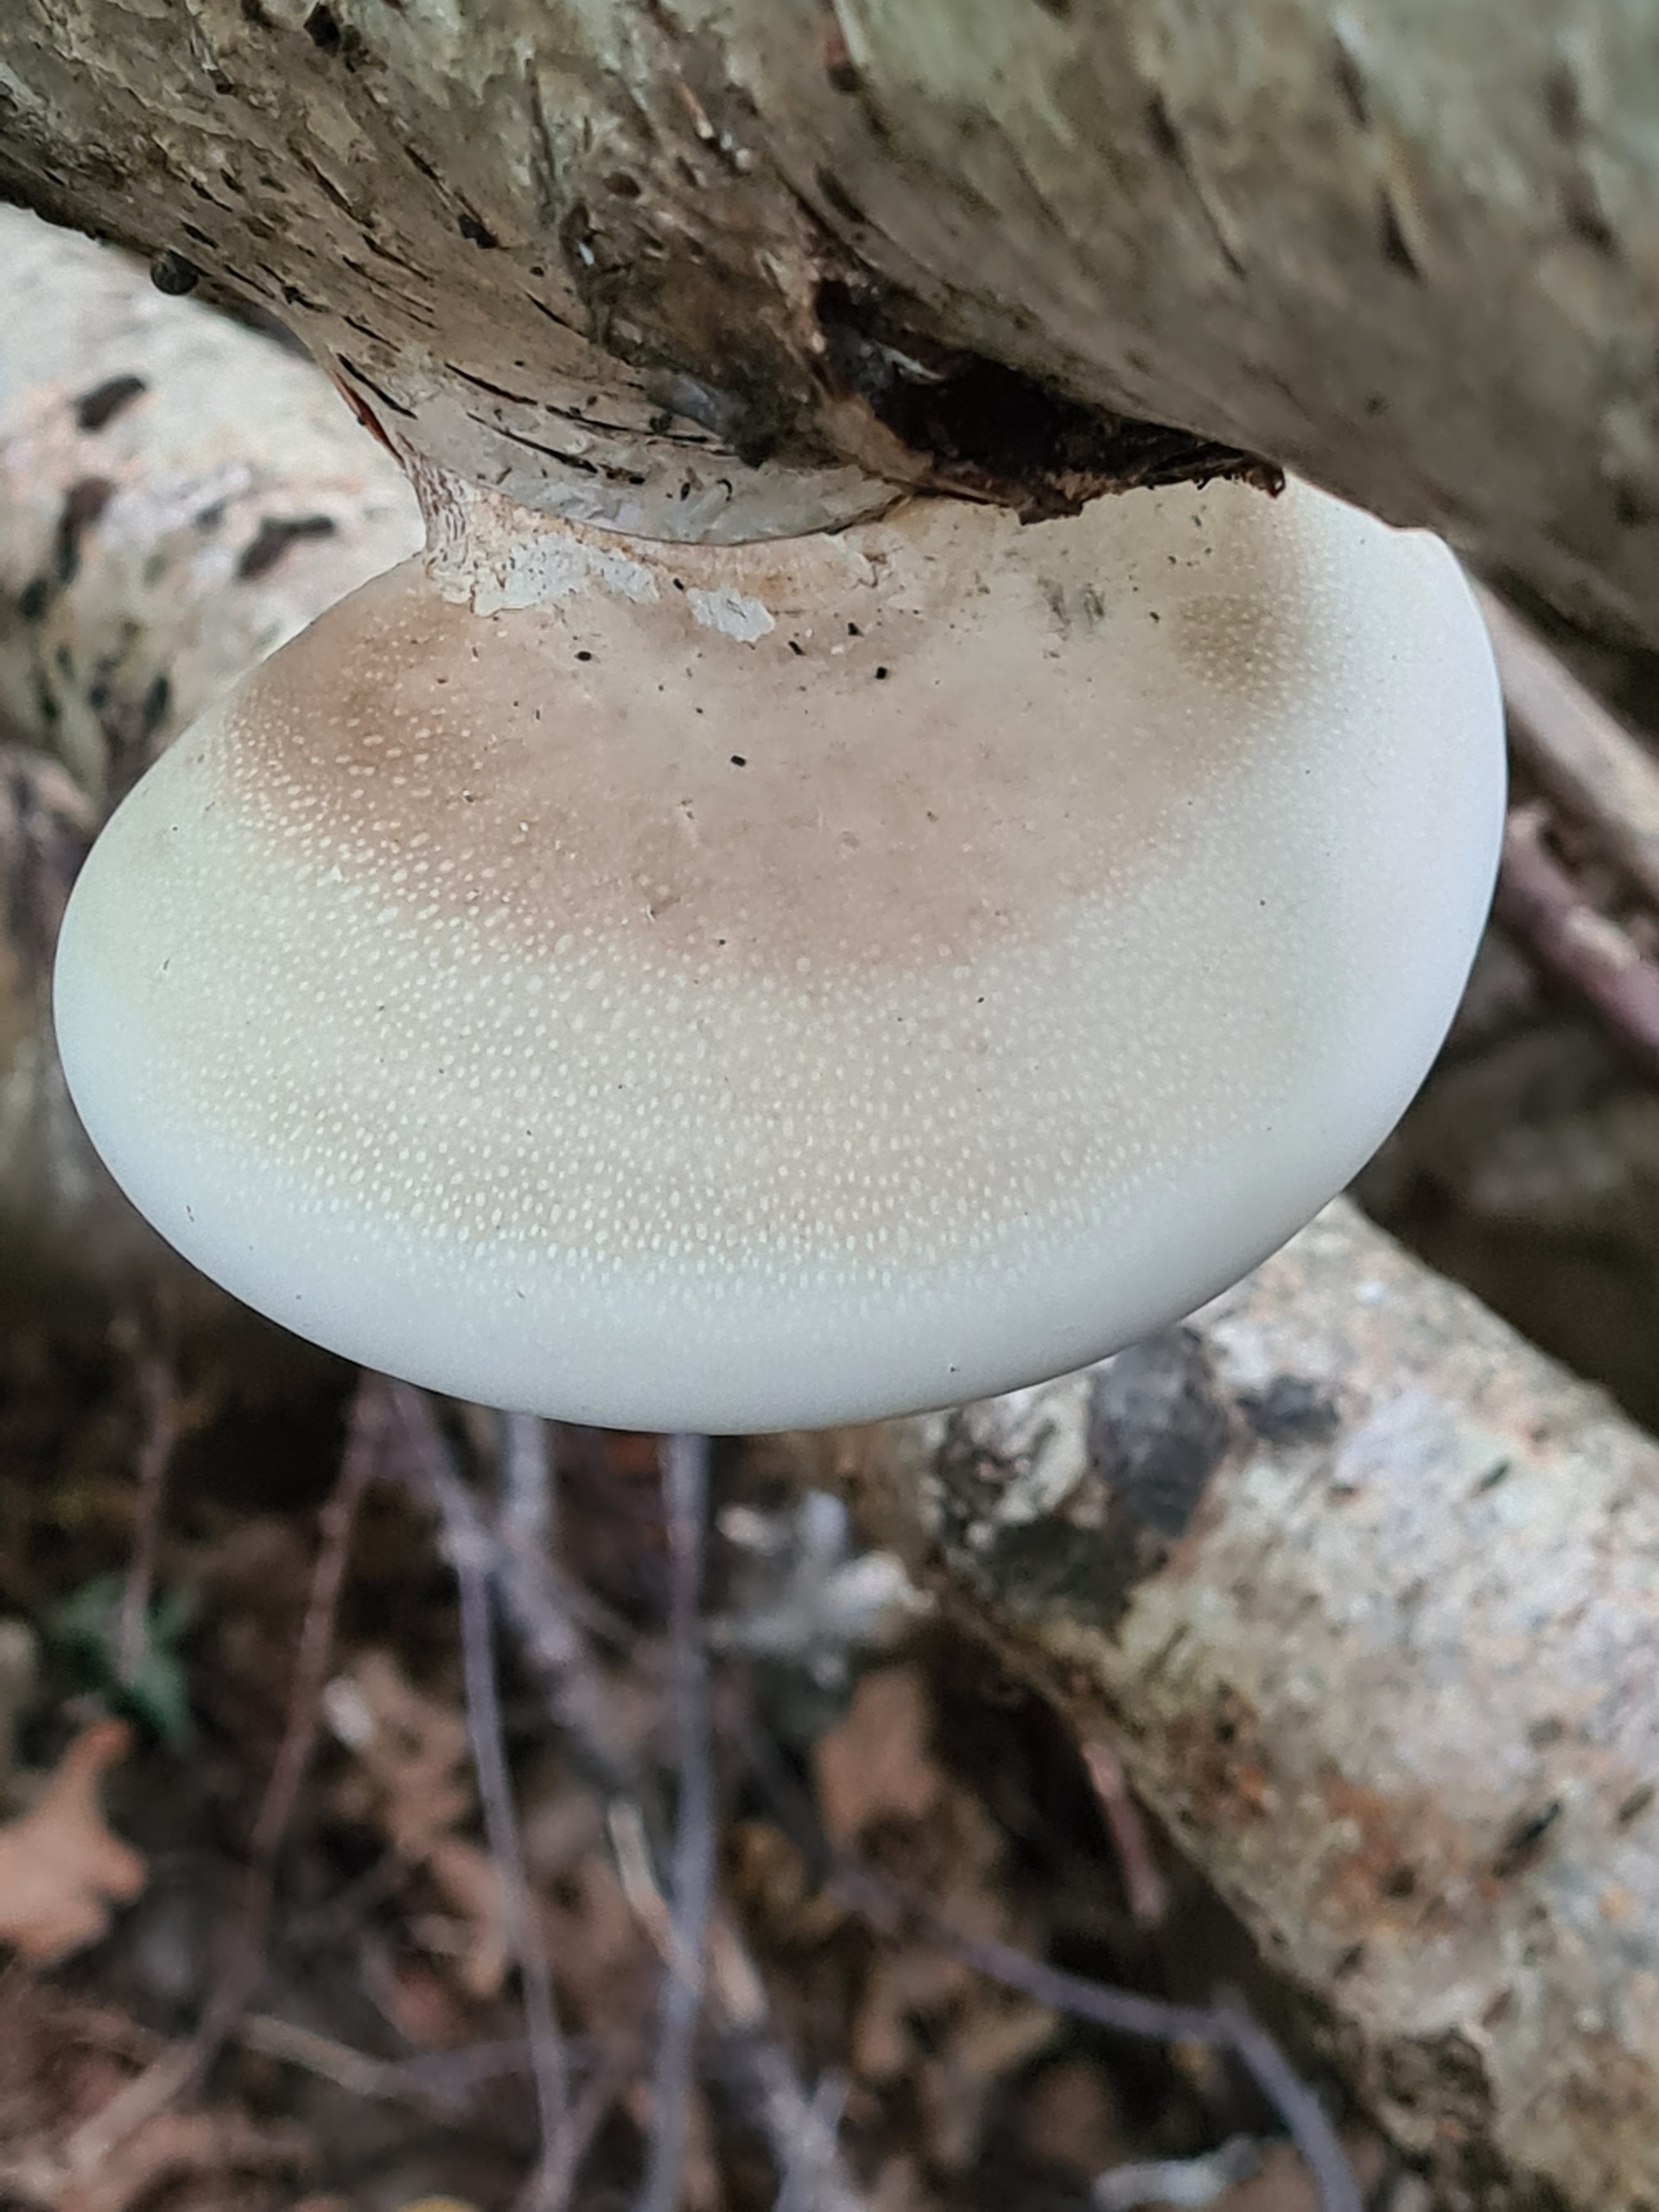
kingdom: Fungi
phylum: Basidiomycota
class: Agaricomycetes
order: Polyporales
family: Fomitopsidaceae
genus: Fomitopsis
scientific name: Fomitopsis betulina
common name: Birkeporesvamp
